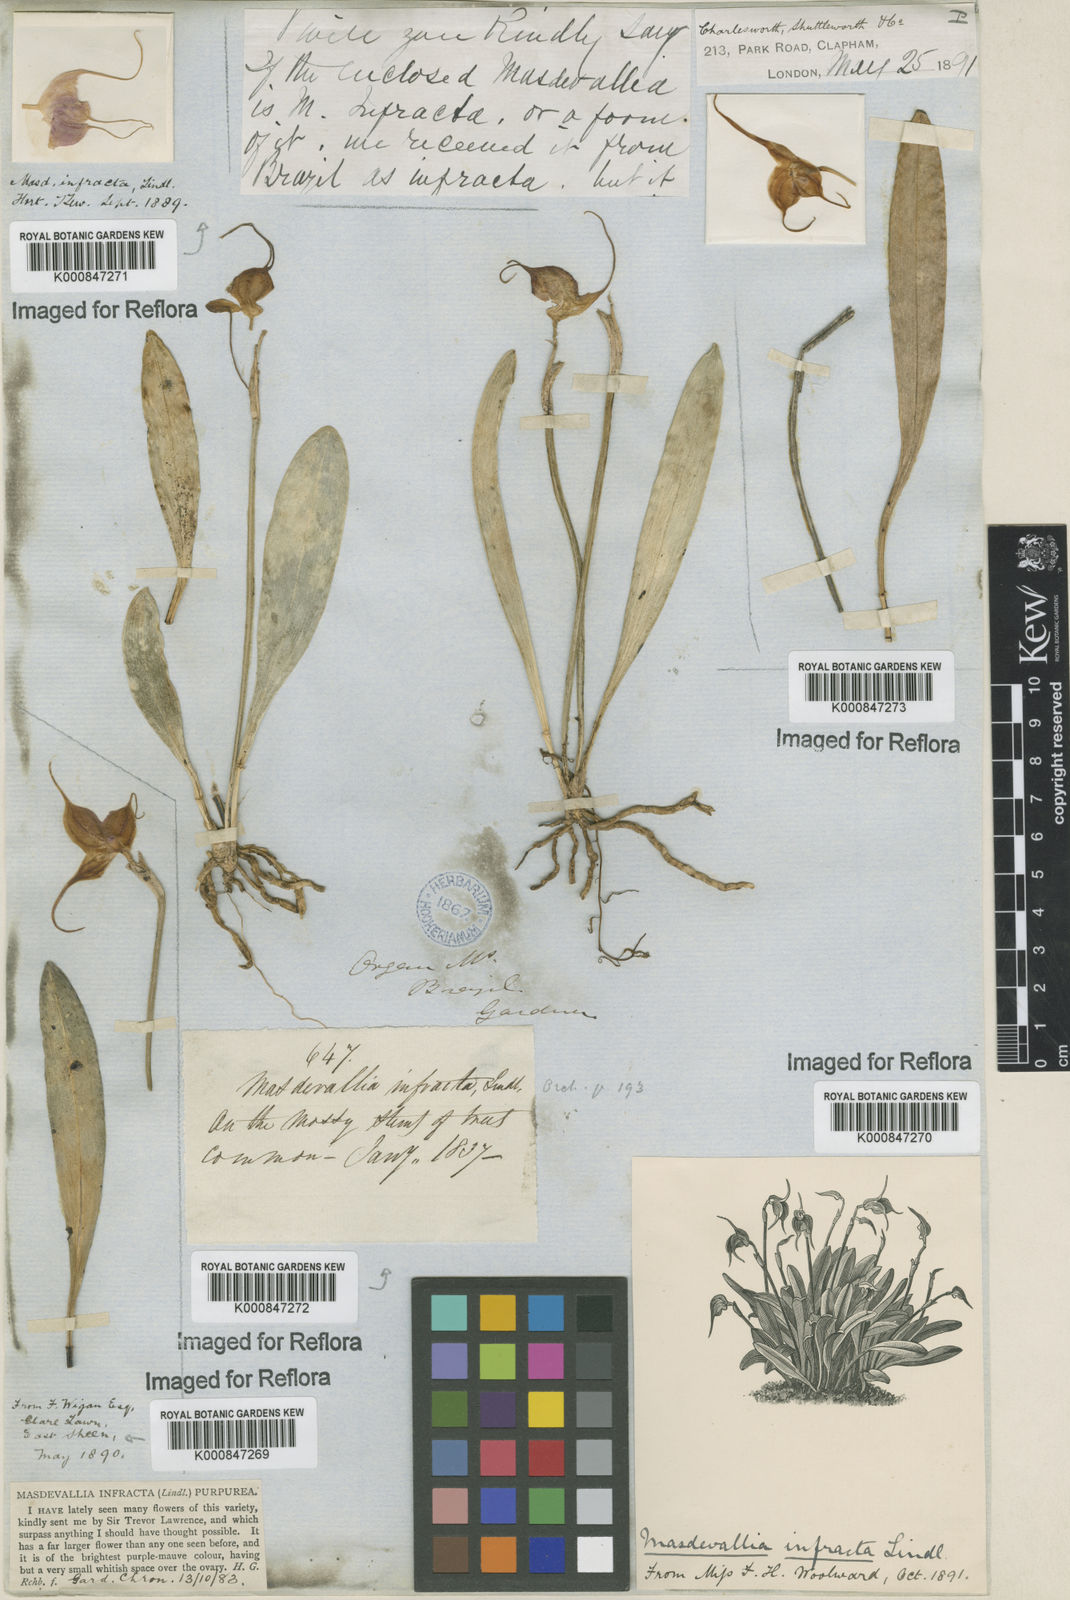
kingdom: Plantae
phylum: Tracheophyta
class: Liliopsida
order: Asparagales
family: Orchidaceae
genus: Masdevallia
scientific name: Masdevallia infracta
